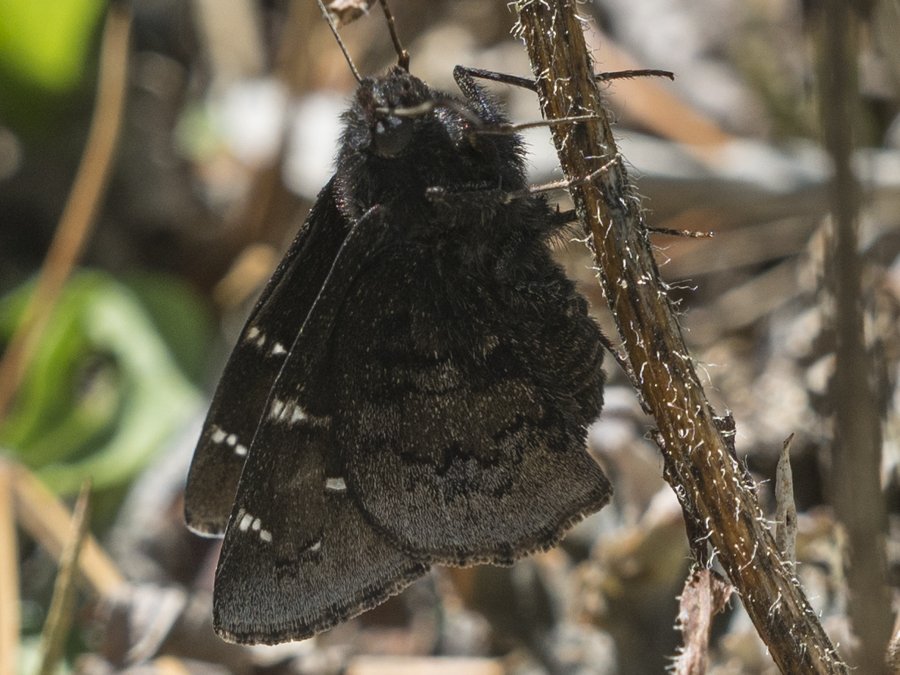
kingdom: Animalia
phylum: Arthropoda
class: Insecta
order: Lepidoptera
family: Hesperiidae
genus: Autochton
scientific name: Autochton
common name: Northern Cloudywing
